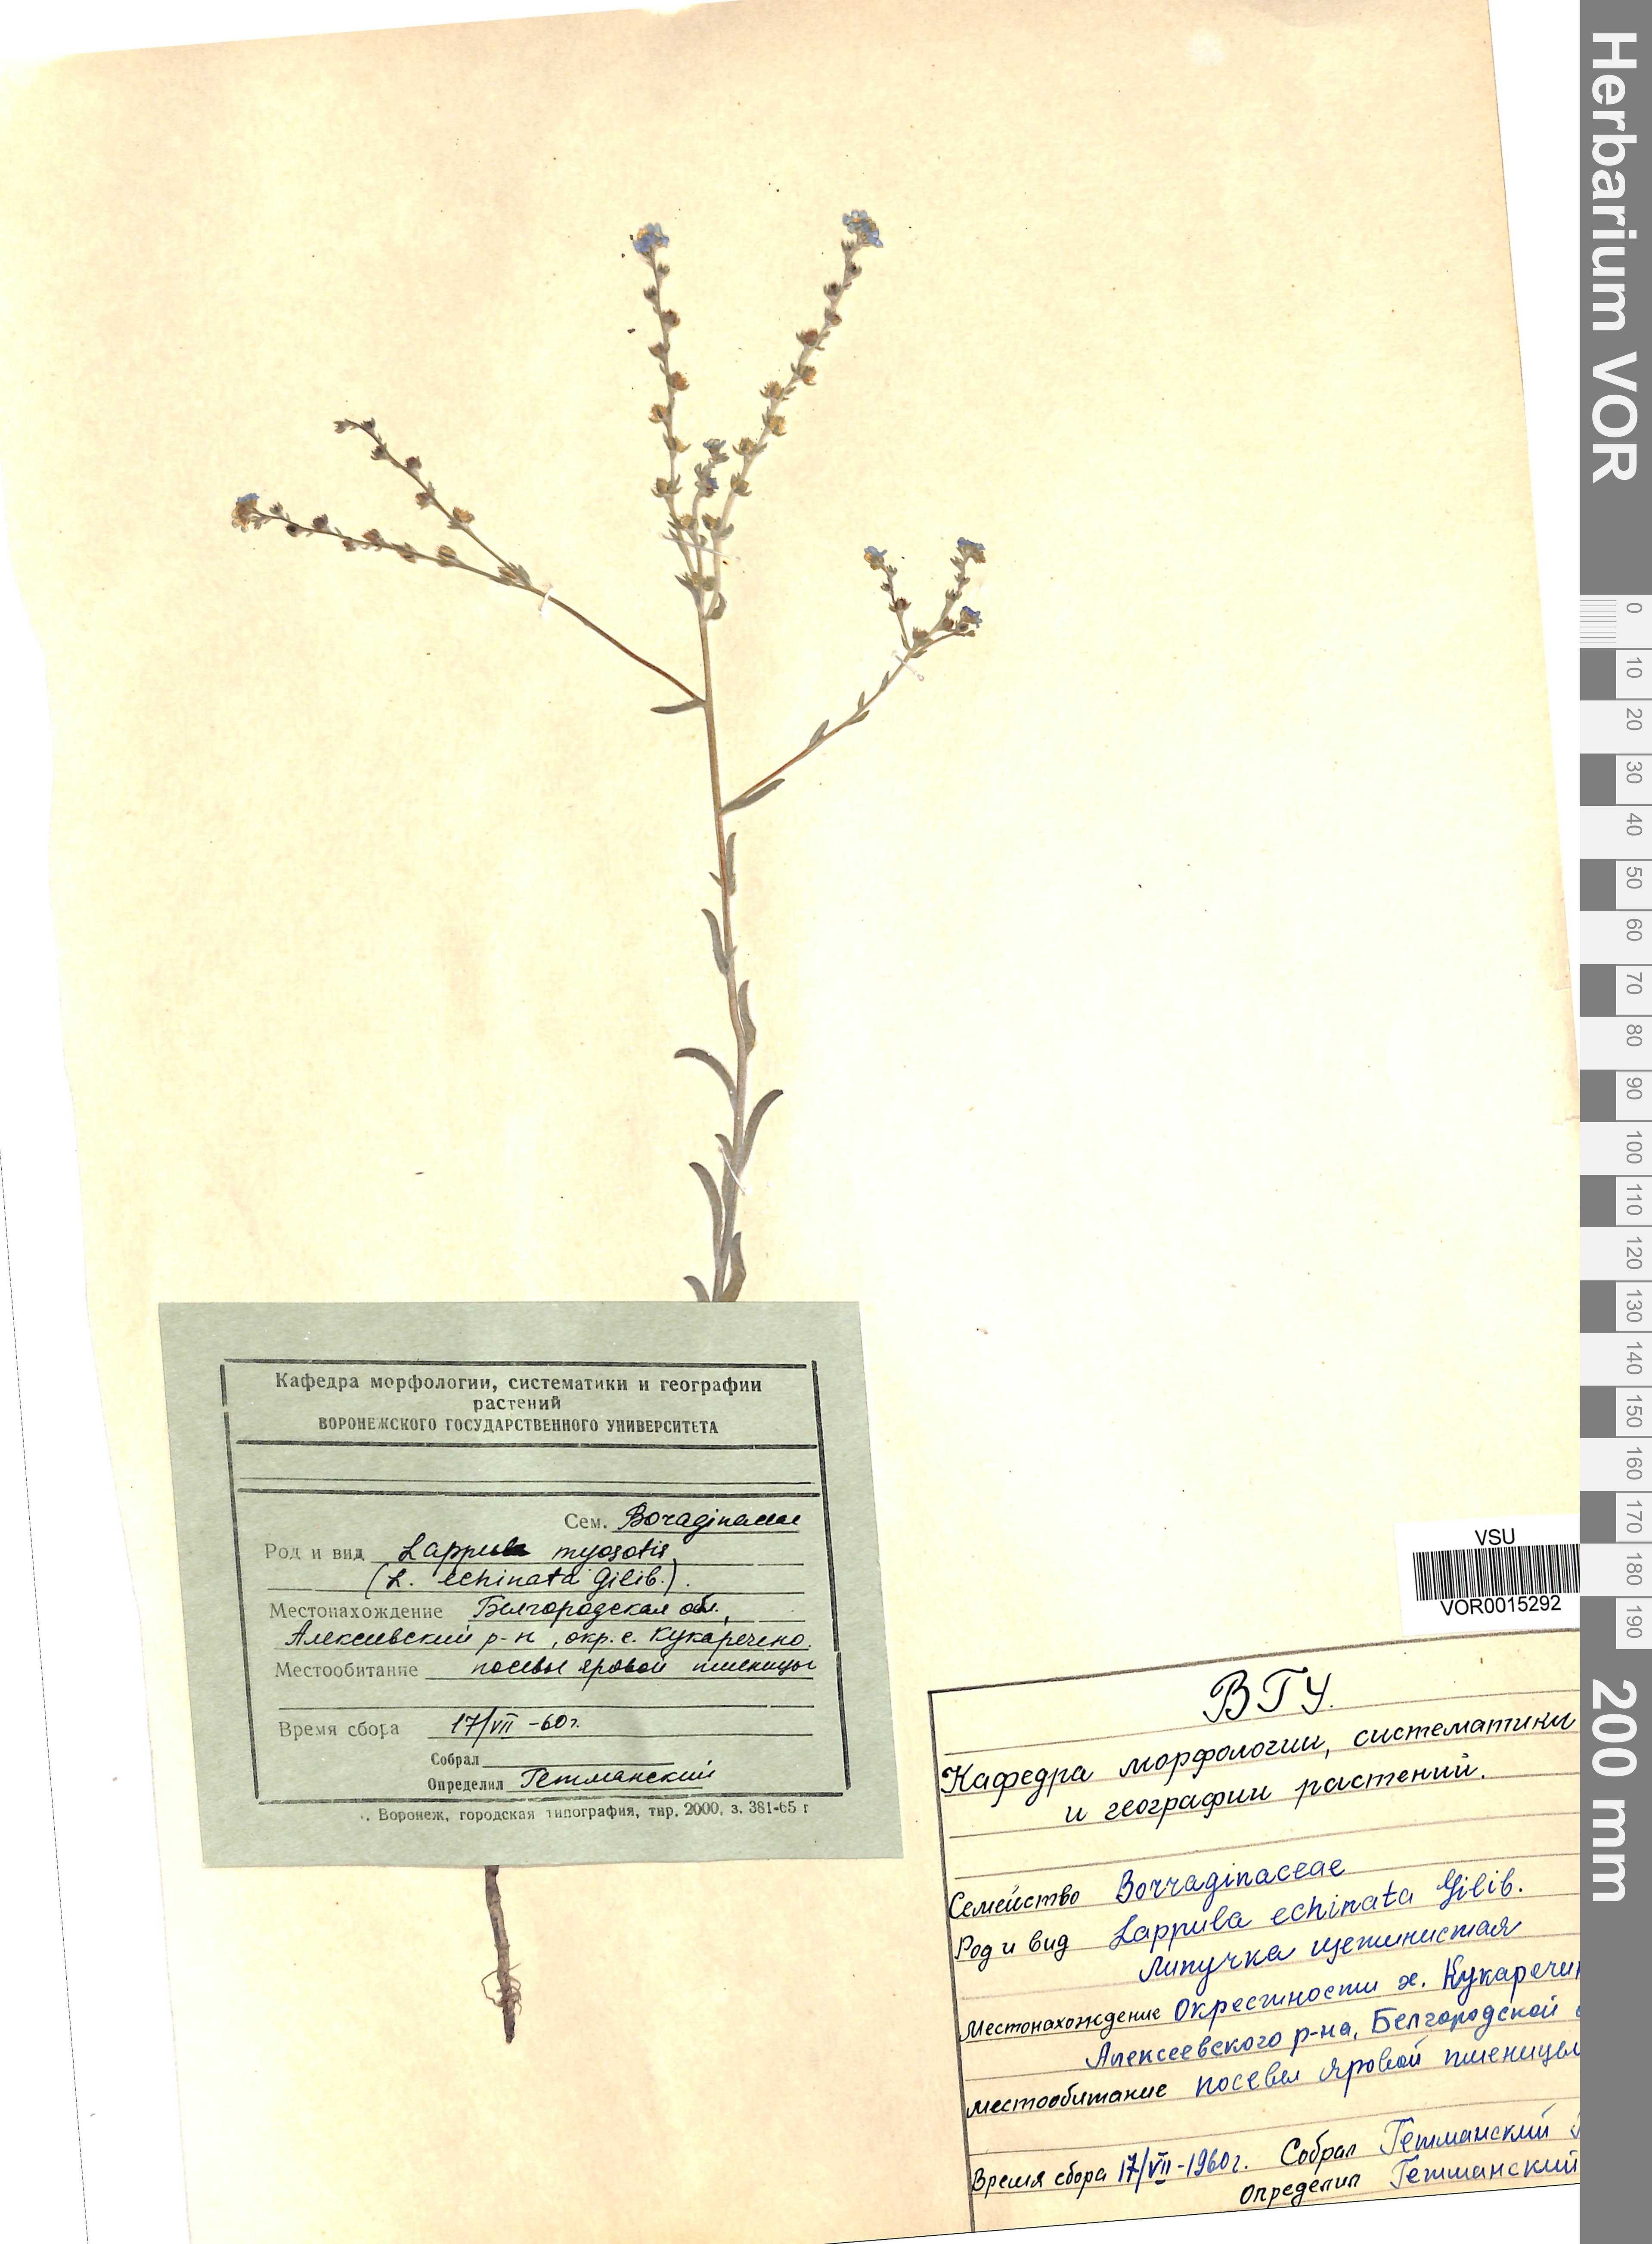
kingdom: Plantae
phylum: Tracheophyta
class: Magnoliopsida
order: Boraginales
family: Boraginaceae
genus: Lappula
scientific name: Lappula squarrosa
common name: European stickseed
